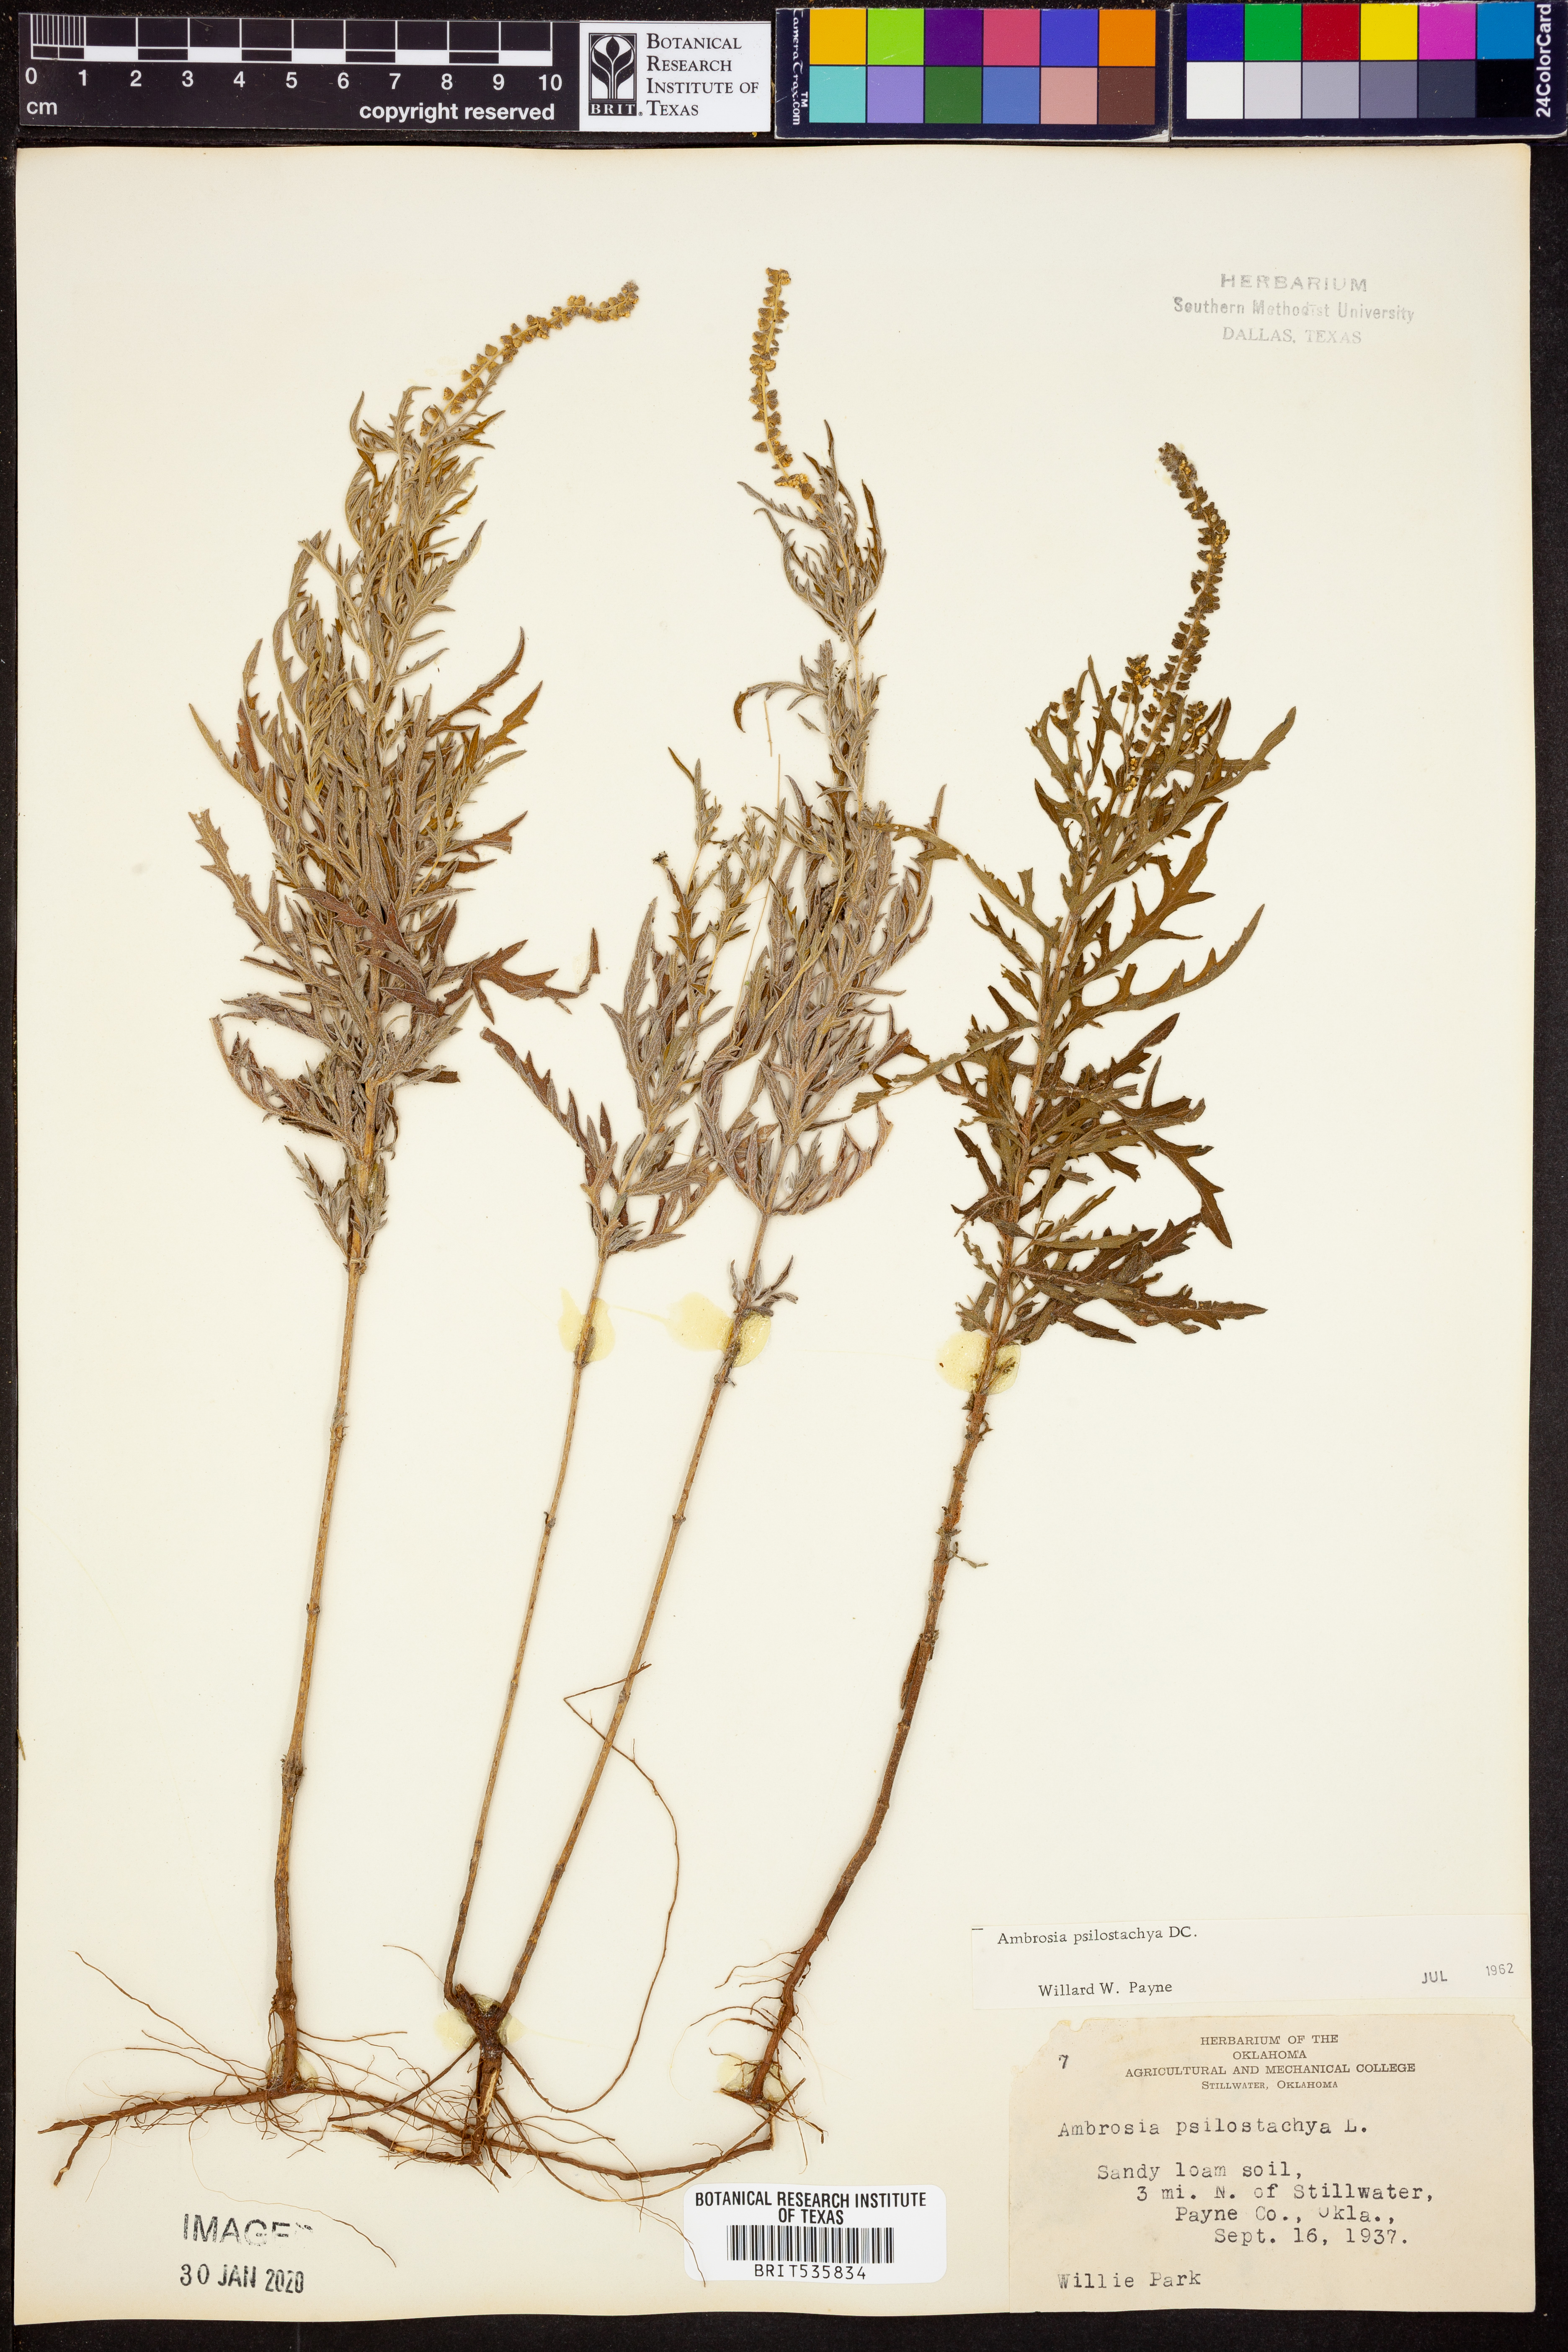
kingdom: Plantae
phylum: Tracheophyta
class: Magnoliopsida
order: Asterales
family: Asteraceae
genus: Ambrosia
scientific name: Ambrosia psilostachya
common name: Perennial ragweed
